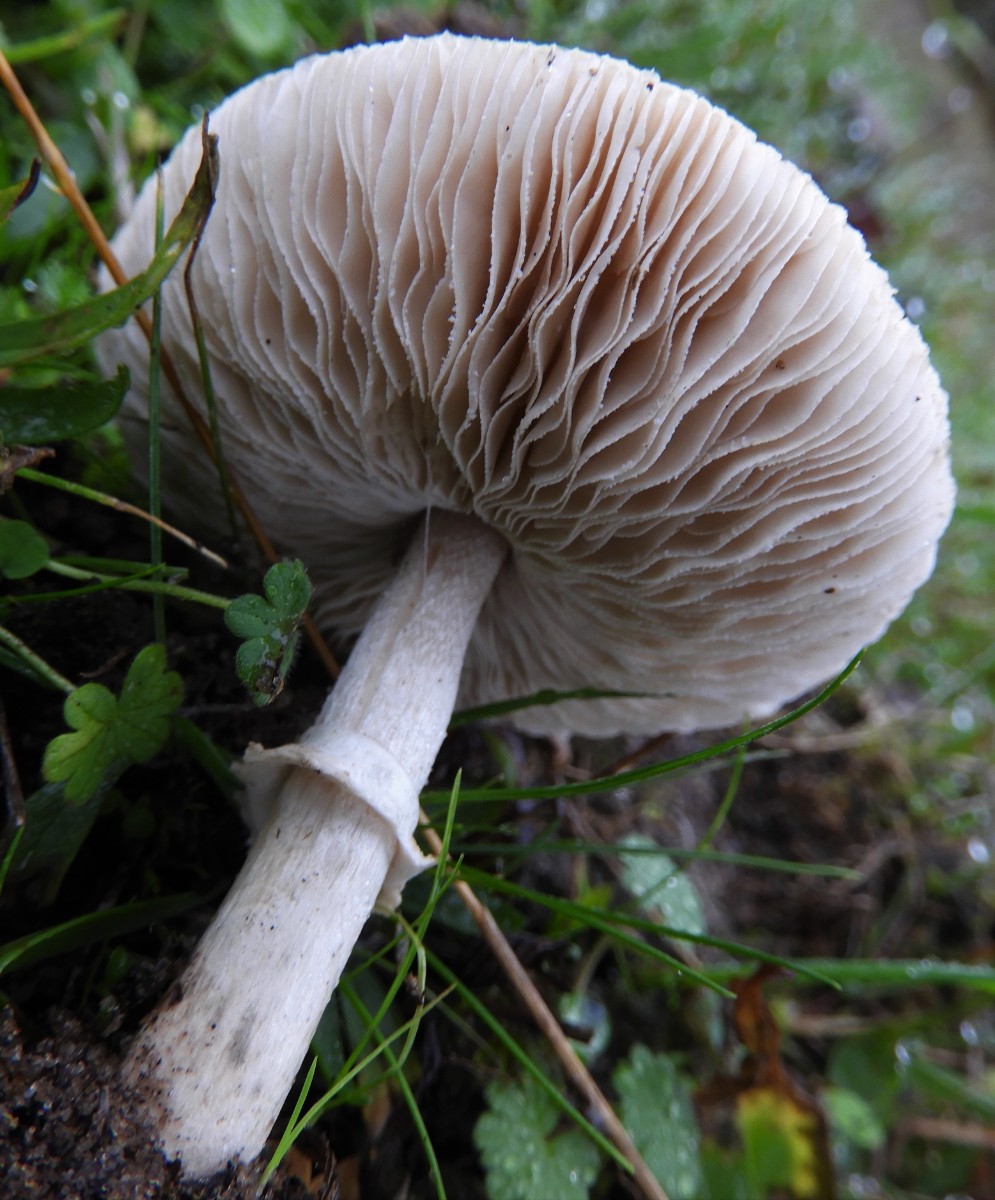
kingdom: Fungi
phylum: Basidiomycota
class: Agaricomycetes
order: Agaricales
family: Agaricaceae
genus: Macrolepiota
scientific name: Macrolepiota excoriata
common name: mark-kæmpeparasolhat
